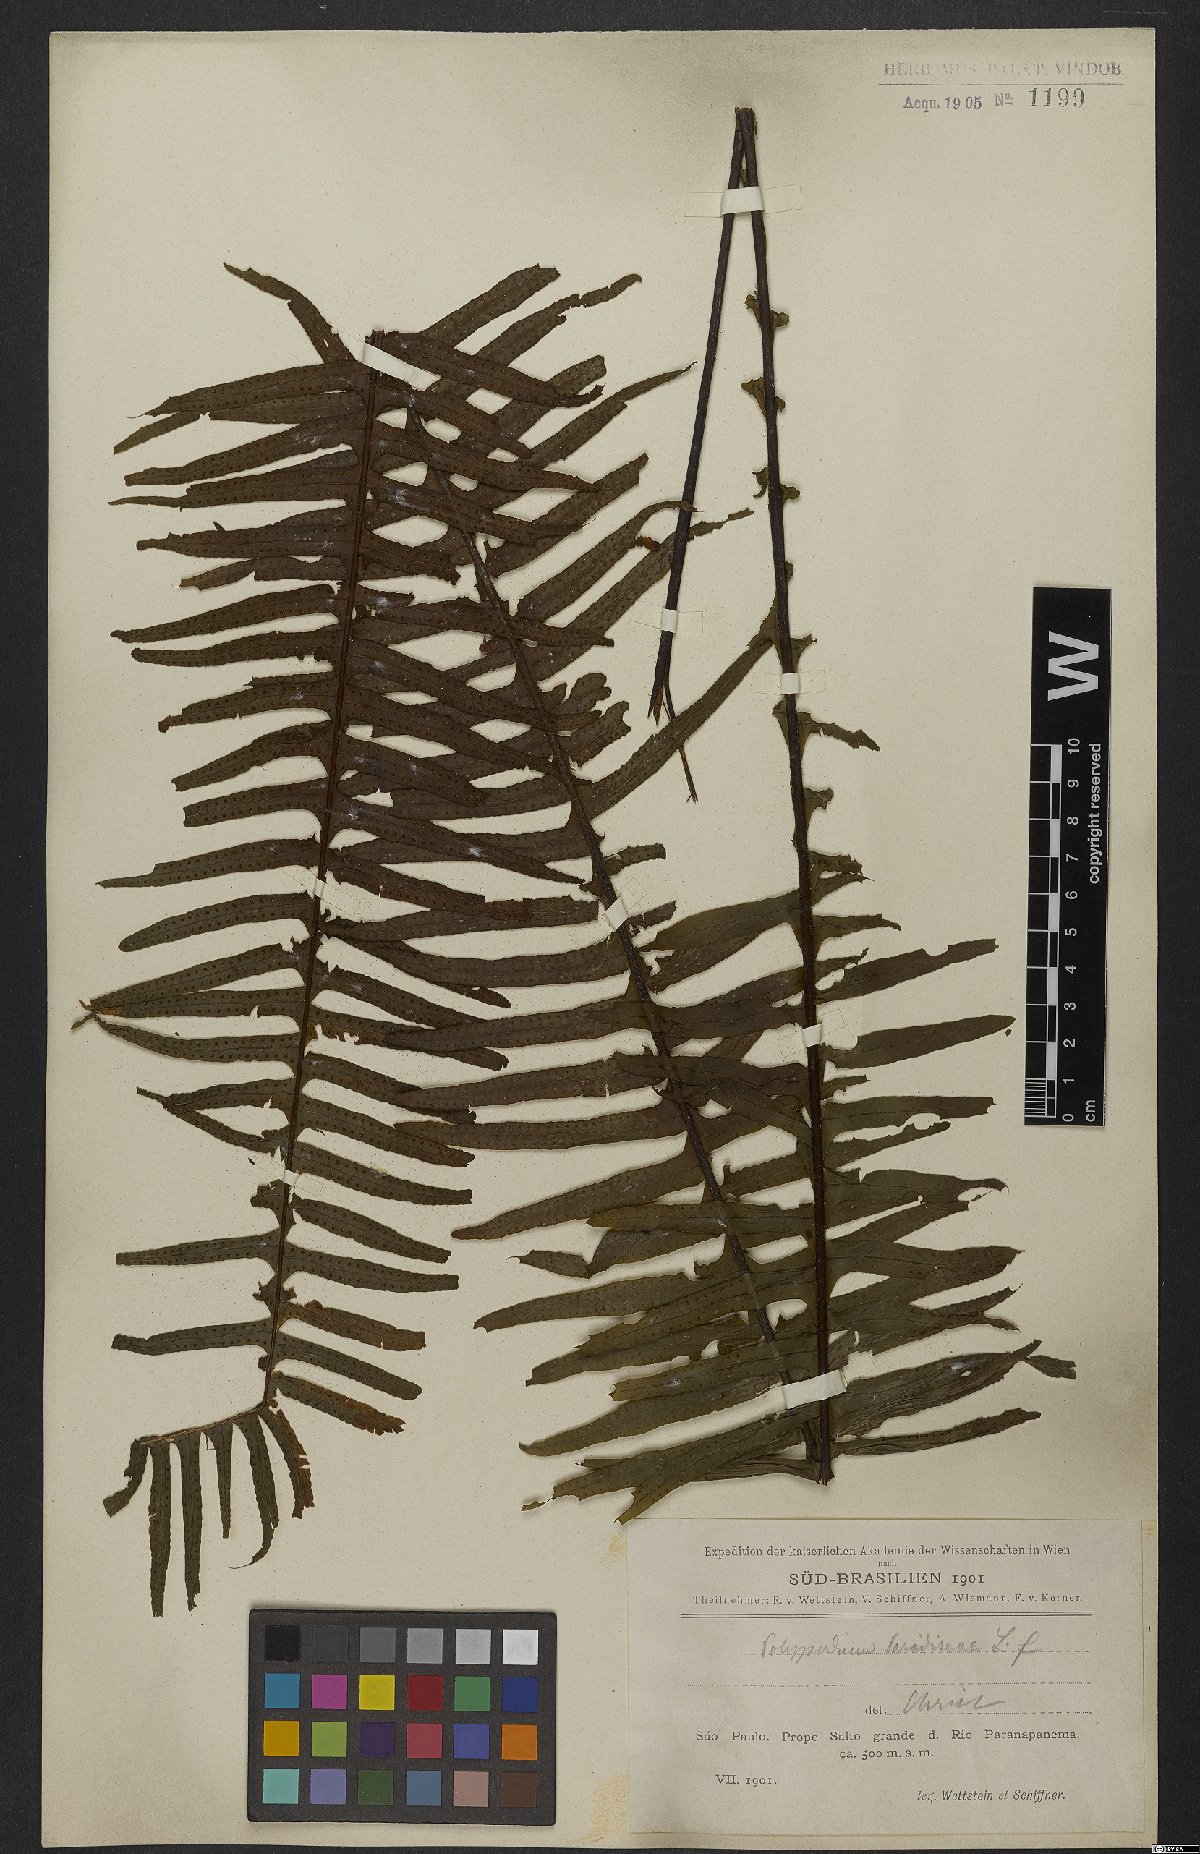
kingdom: Plantae
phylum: Tracheophyta
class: Polypodiopsida
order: Polypodiales
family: Polypodiaceae
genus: Pecluma
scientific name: Pecluma paradiseae
